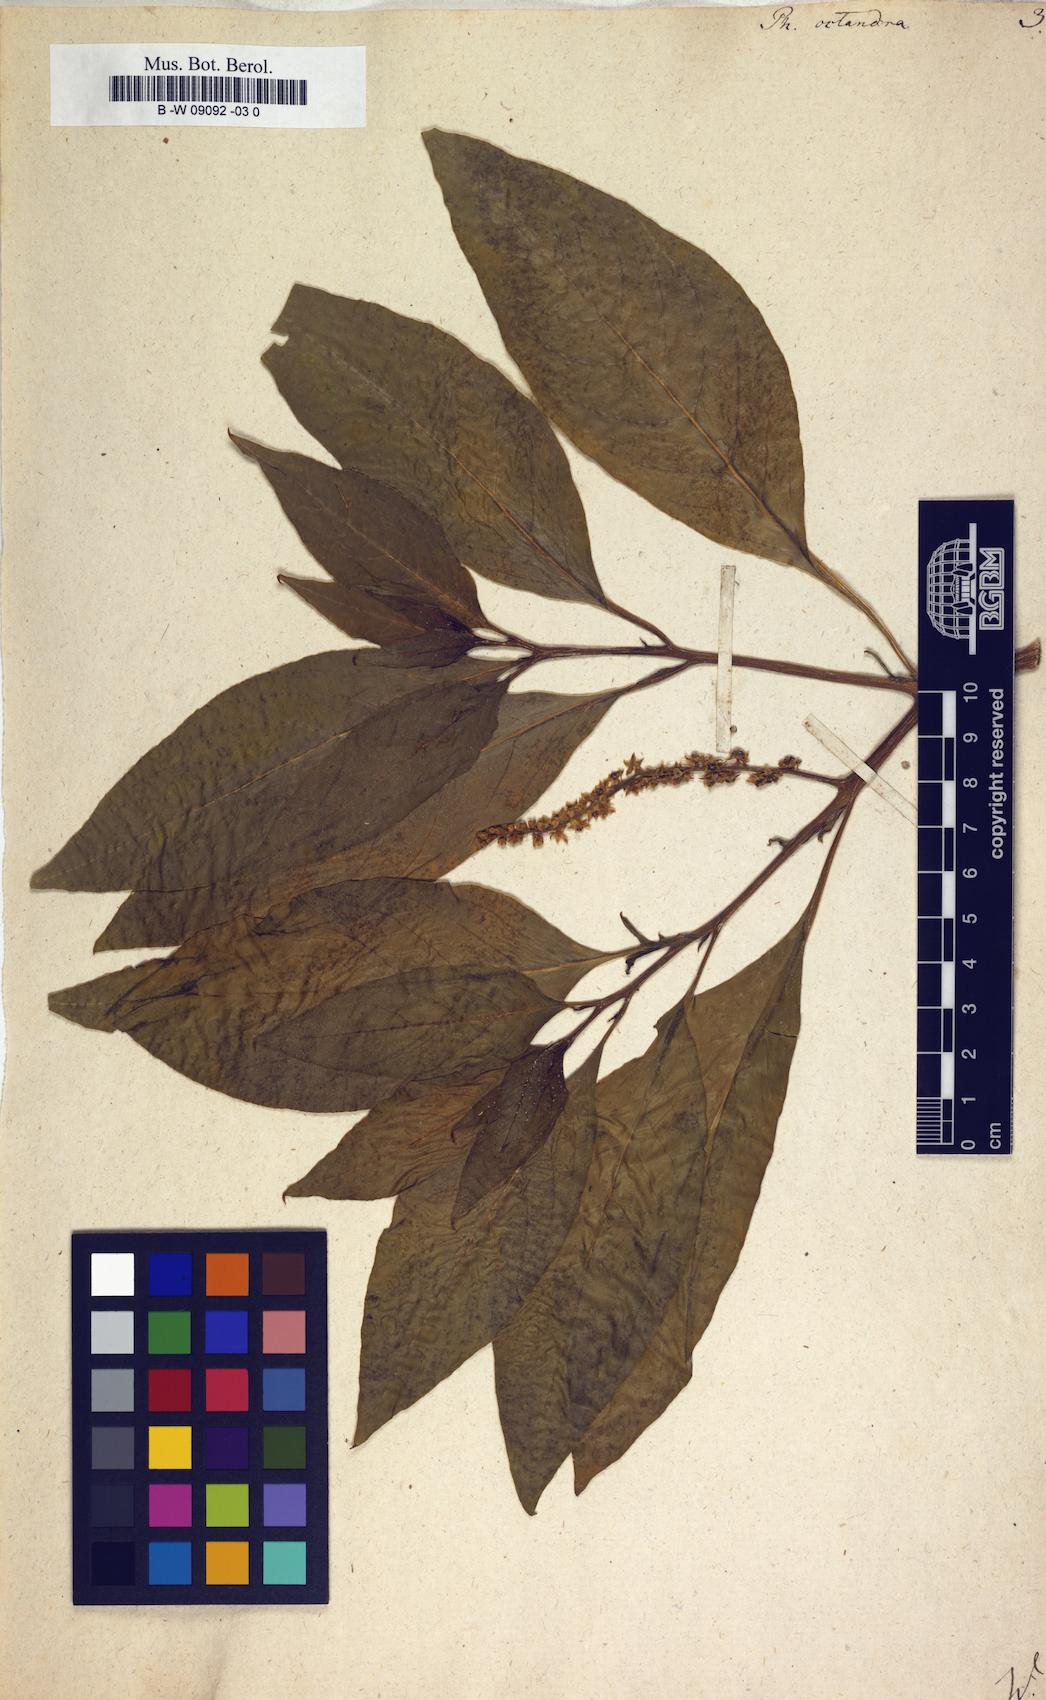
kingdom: Plantae
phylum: Tracheophyta
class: Magnoliopsida
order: Caryophyllales
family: Phytolaccaceae
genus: Phytolacca
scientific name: Phytolacca icosandra
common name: Button pokeweed
